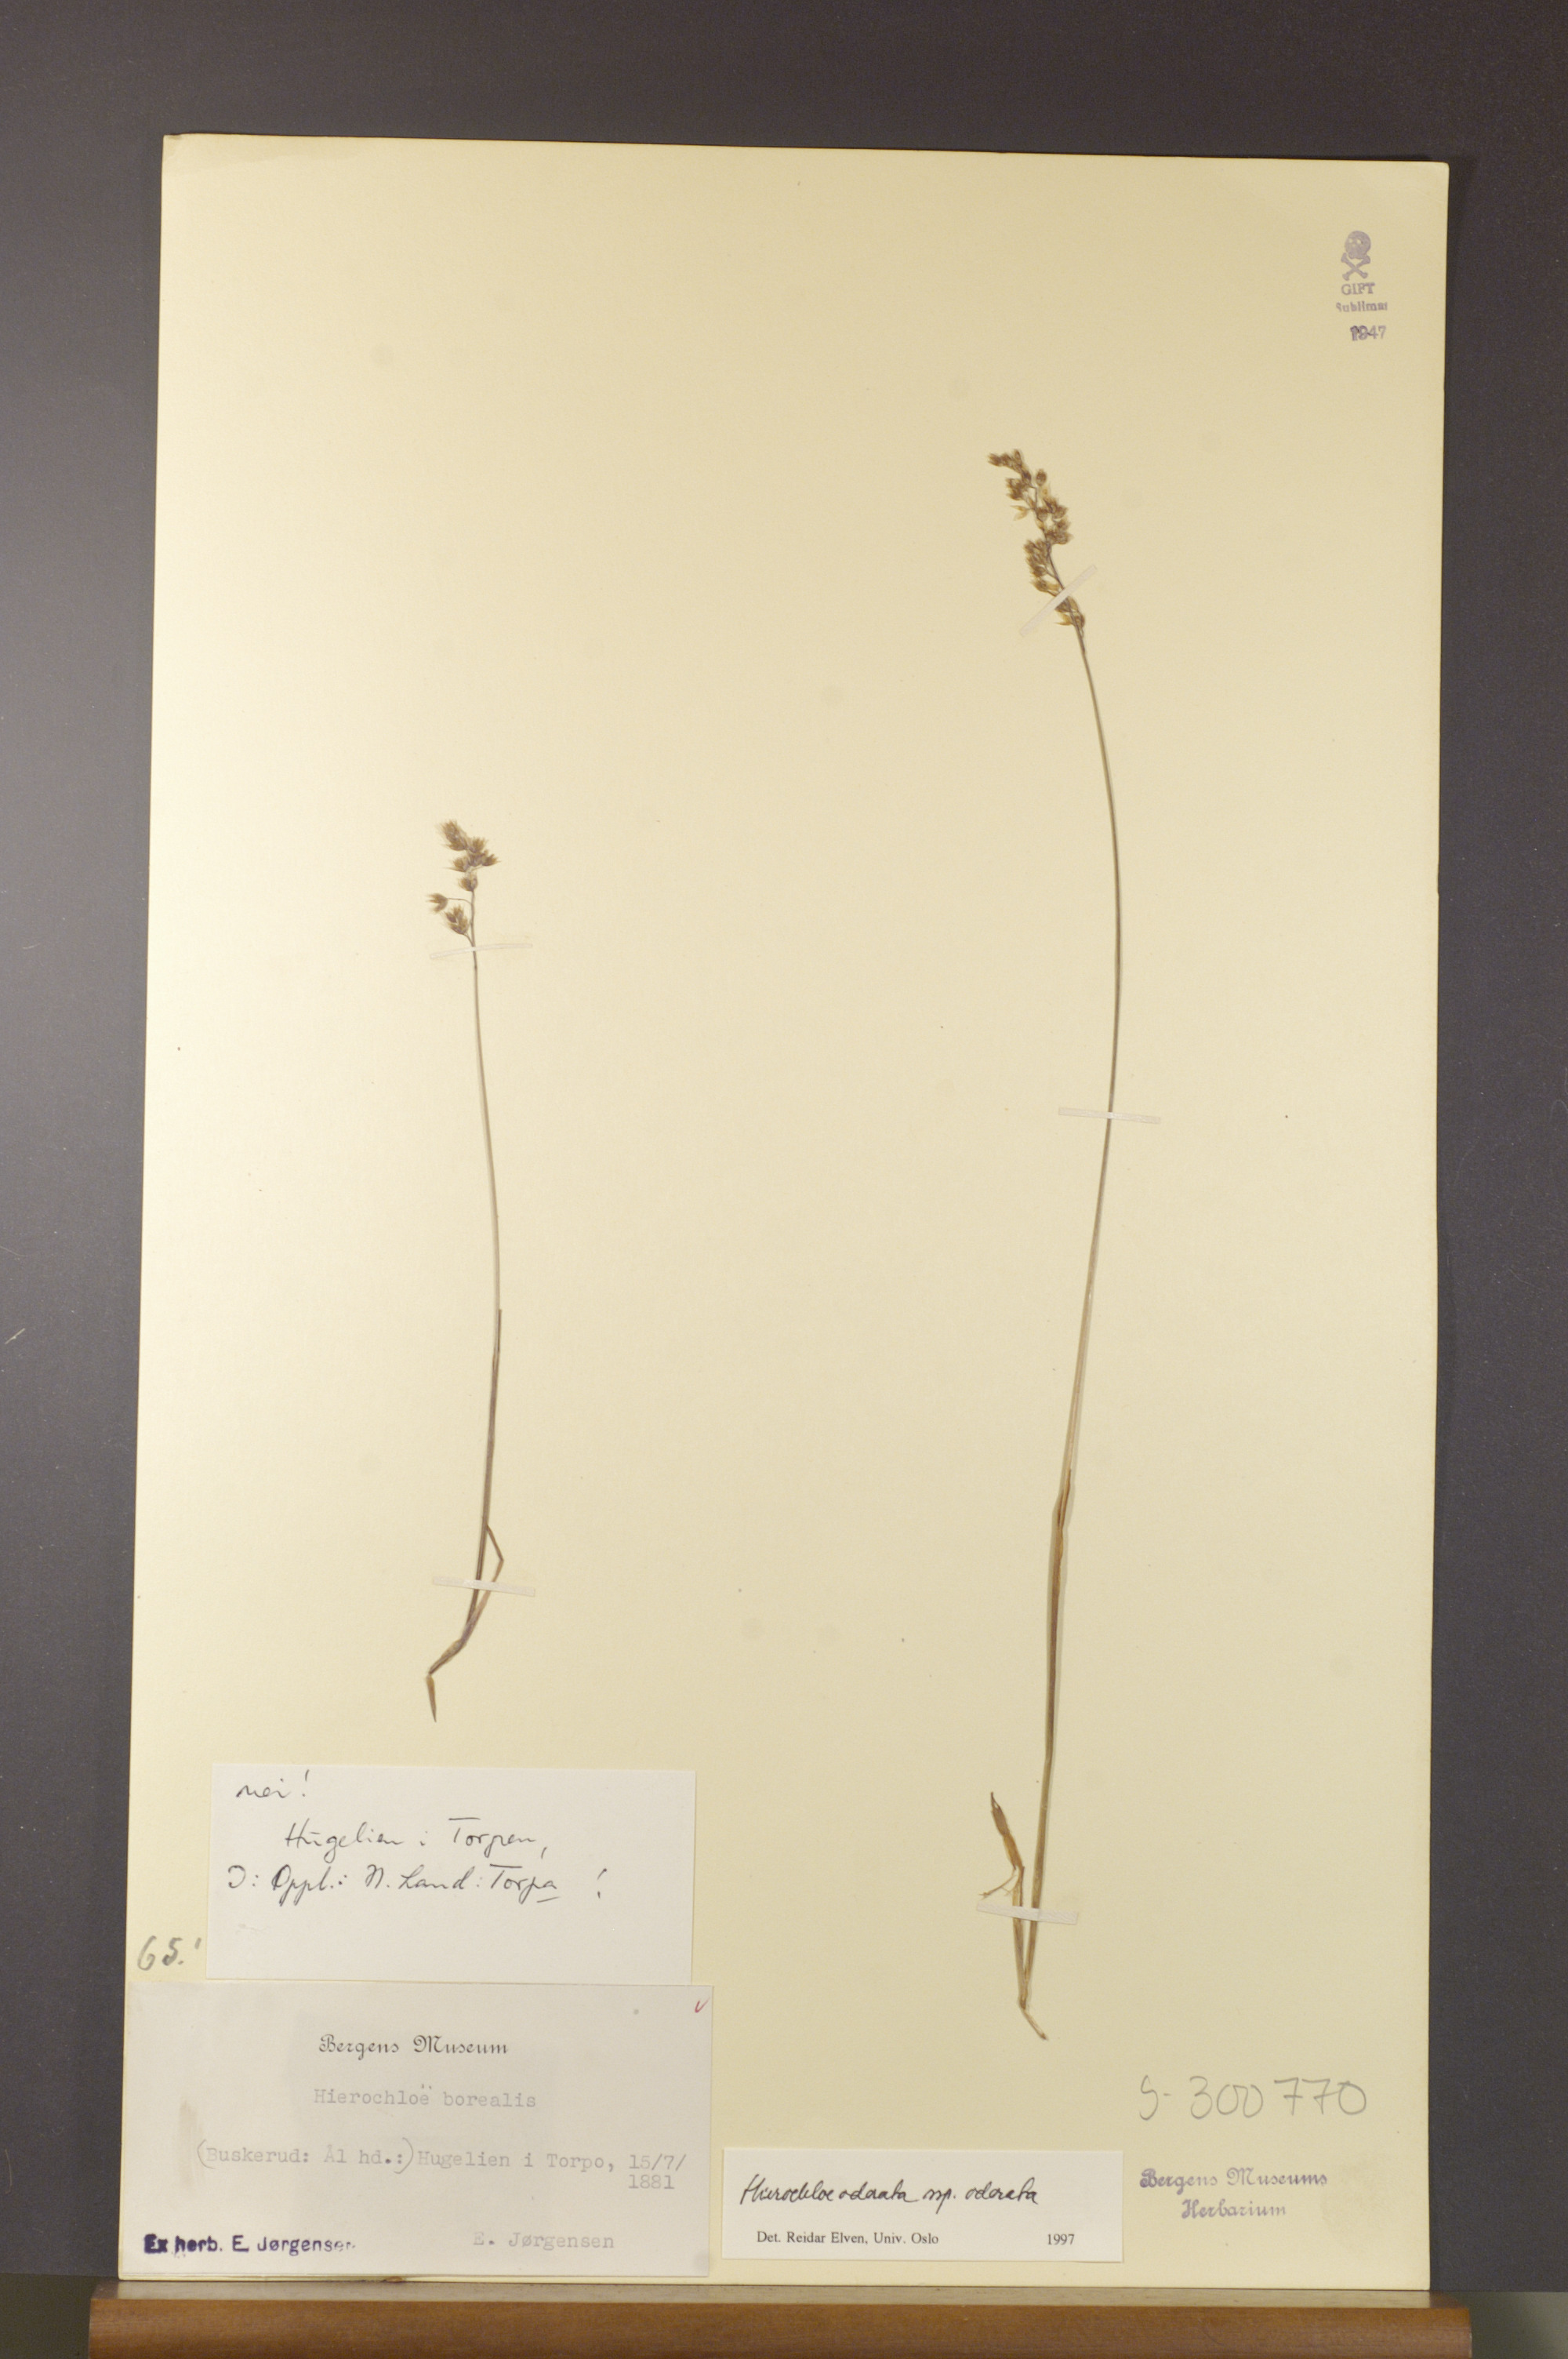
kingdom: Plantae
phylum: Tracheophyta
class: Liliopsida
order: Poales
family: Poaceae
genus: Anthoxanthum
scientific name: Anthoxanthum nitens
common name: Holy grass
